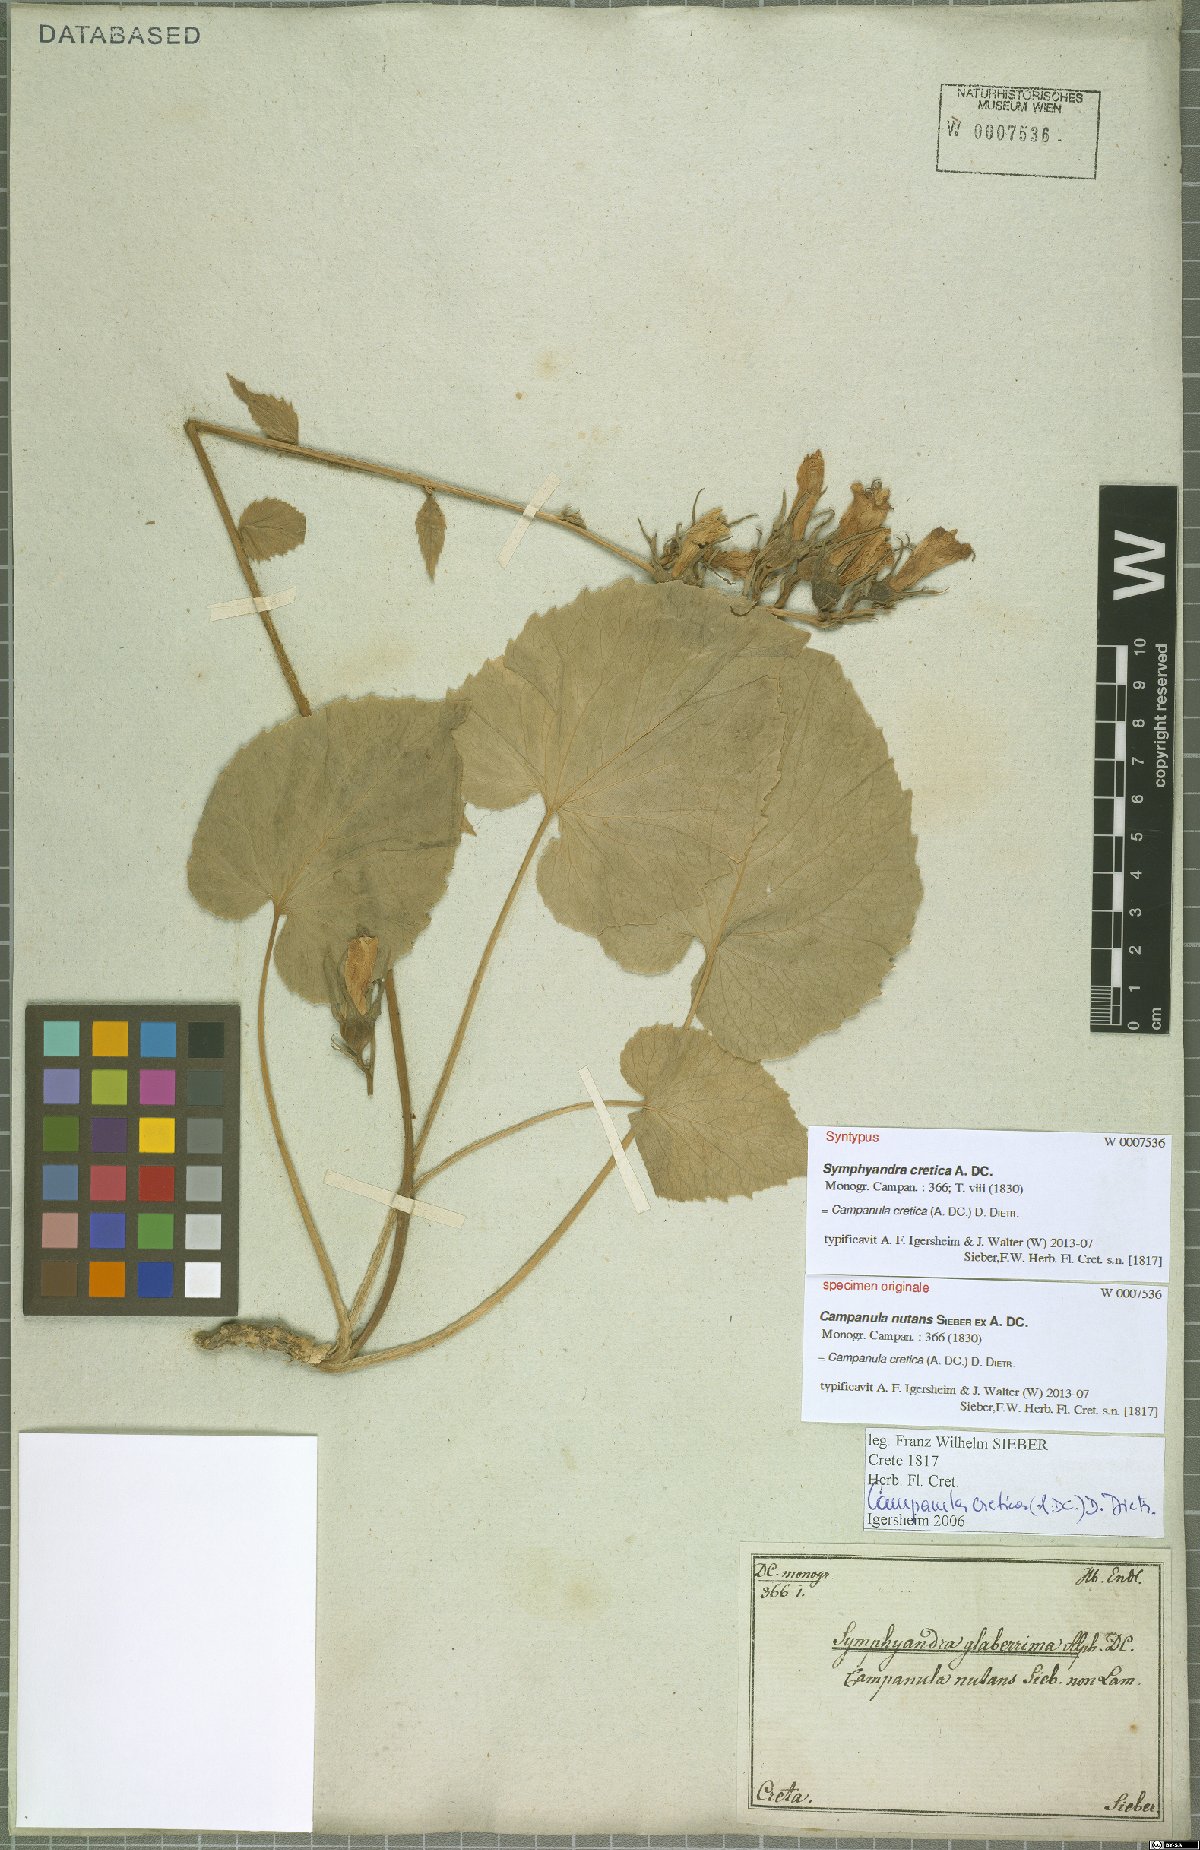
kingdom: Plantae
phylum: Tracheophyta
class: Magnoliopsida
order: Asterales
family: Campanulaceae
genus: Campanula
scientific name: Campanula cretica
